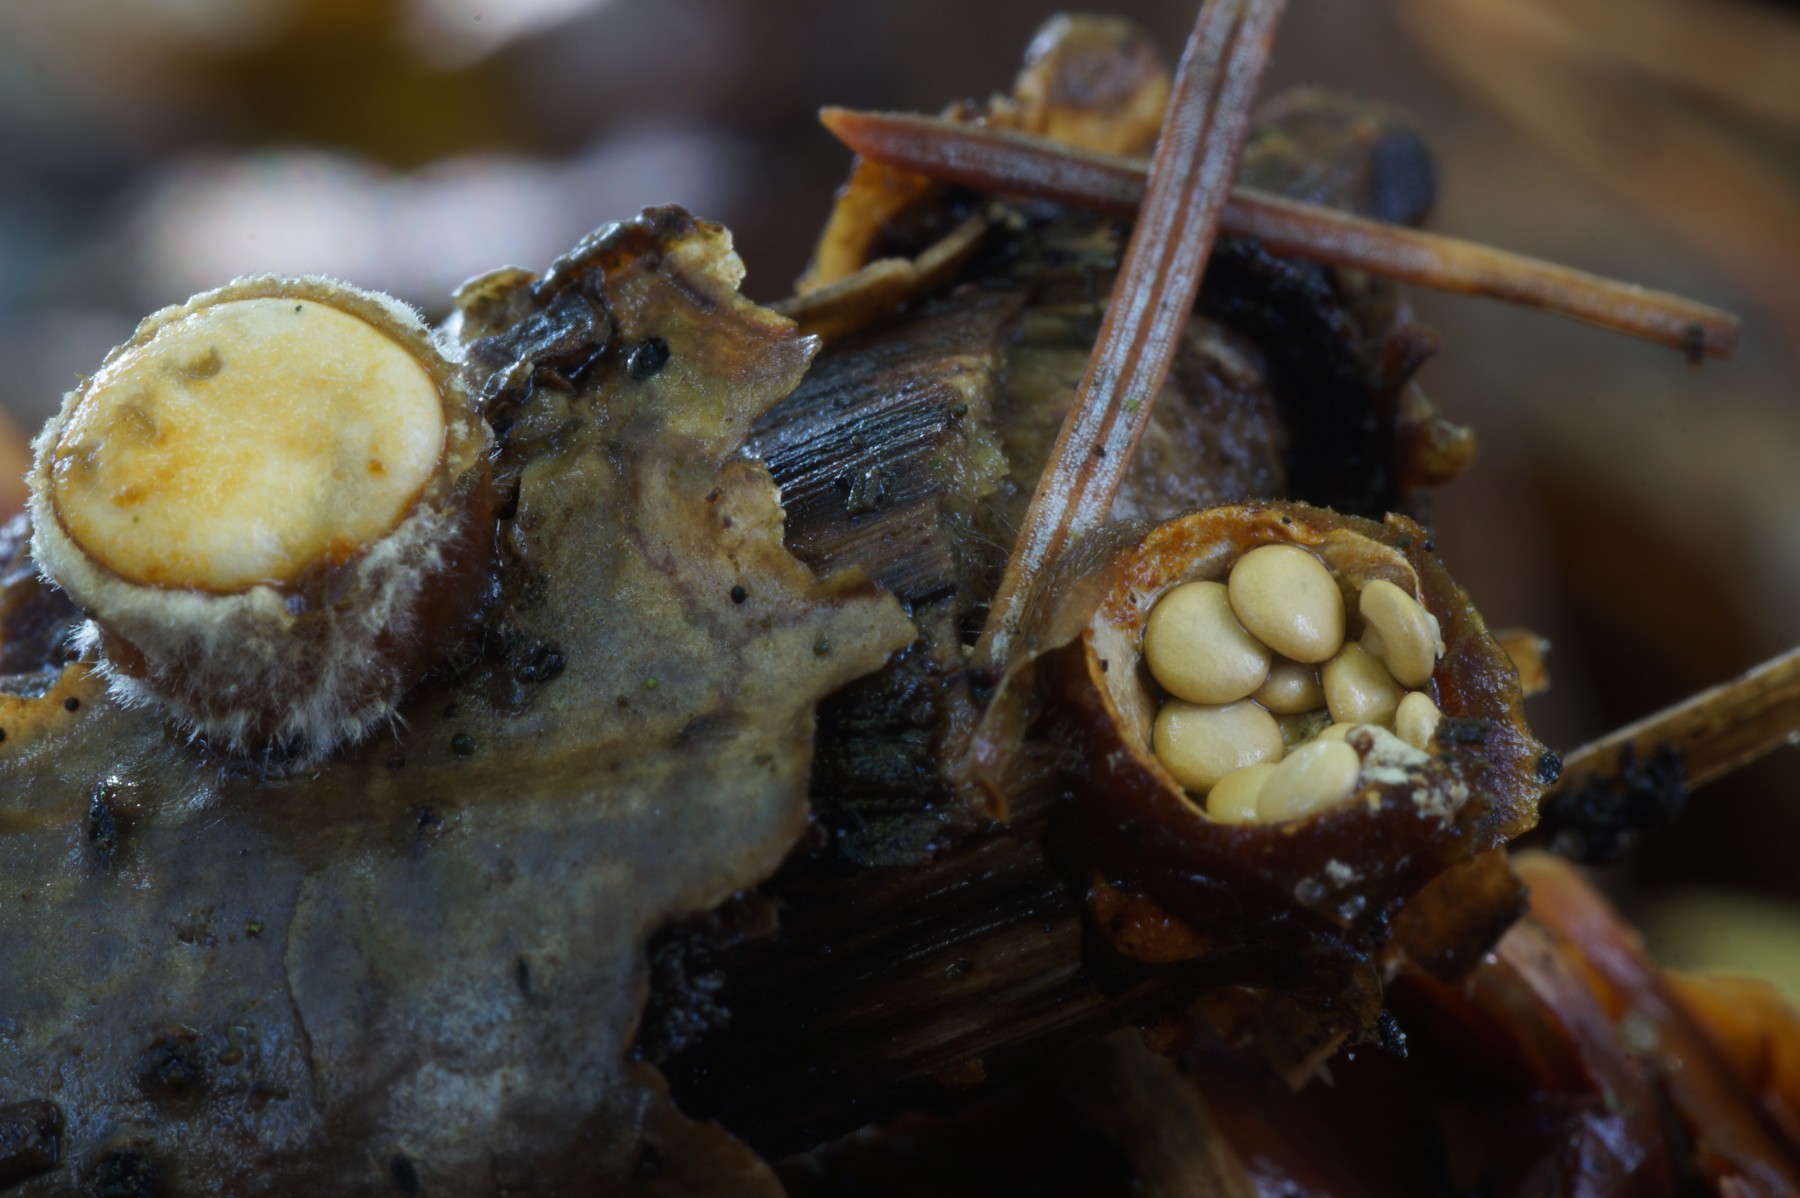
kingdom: Fungi
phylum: Basidiomycota
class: Agaricomycetes
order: Agaricales
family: Nidulariaceae
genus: Crucibulum
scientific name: Crucibulum crucibuliforme
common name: krukkesvamp
